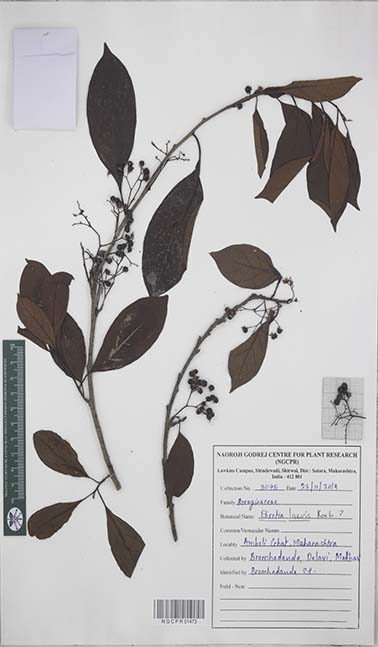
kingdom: Plantae
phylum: Tracheophyta
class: Magnoliopsida
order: Boraginales
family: Ehretiaceae
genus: Ehretia
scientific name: Ehretia laevis
